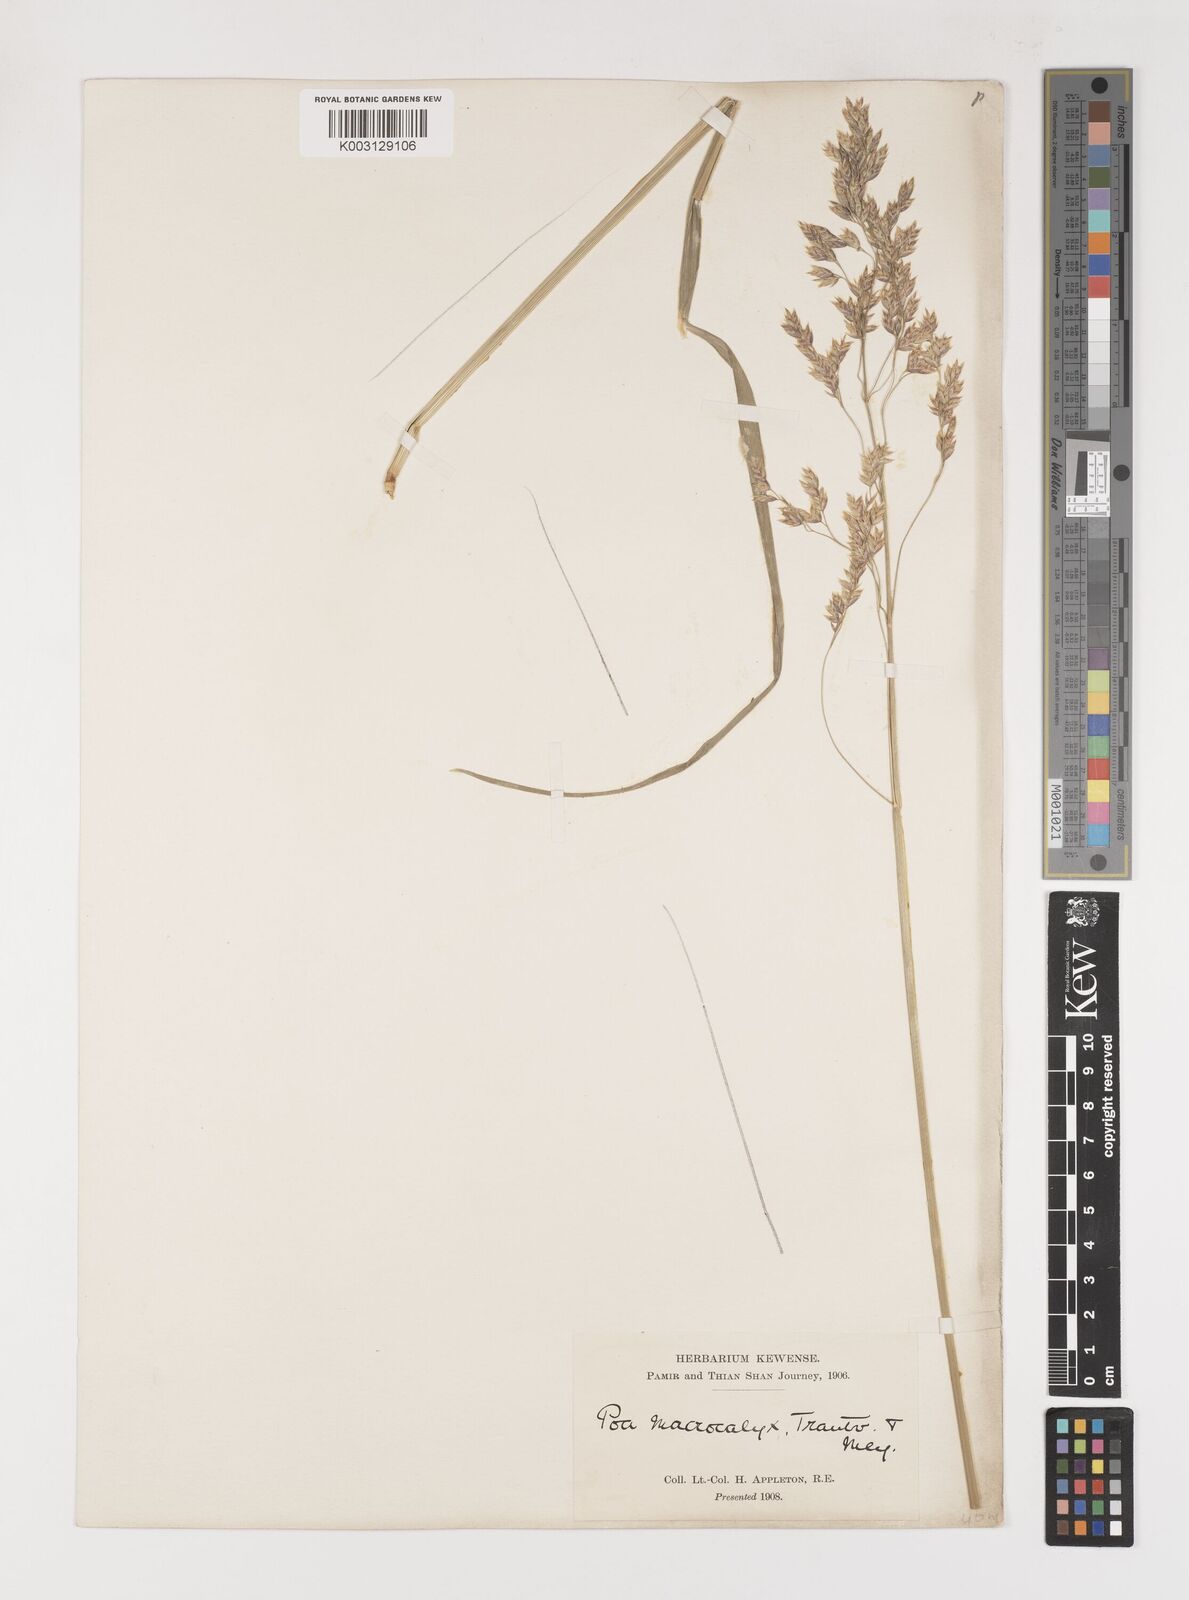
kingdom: Plantae
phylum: Tracheophyta
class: Liliopsida
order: Poales
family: Poaceae
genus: Poa
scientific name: Poa macrocalyx
